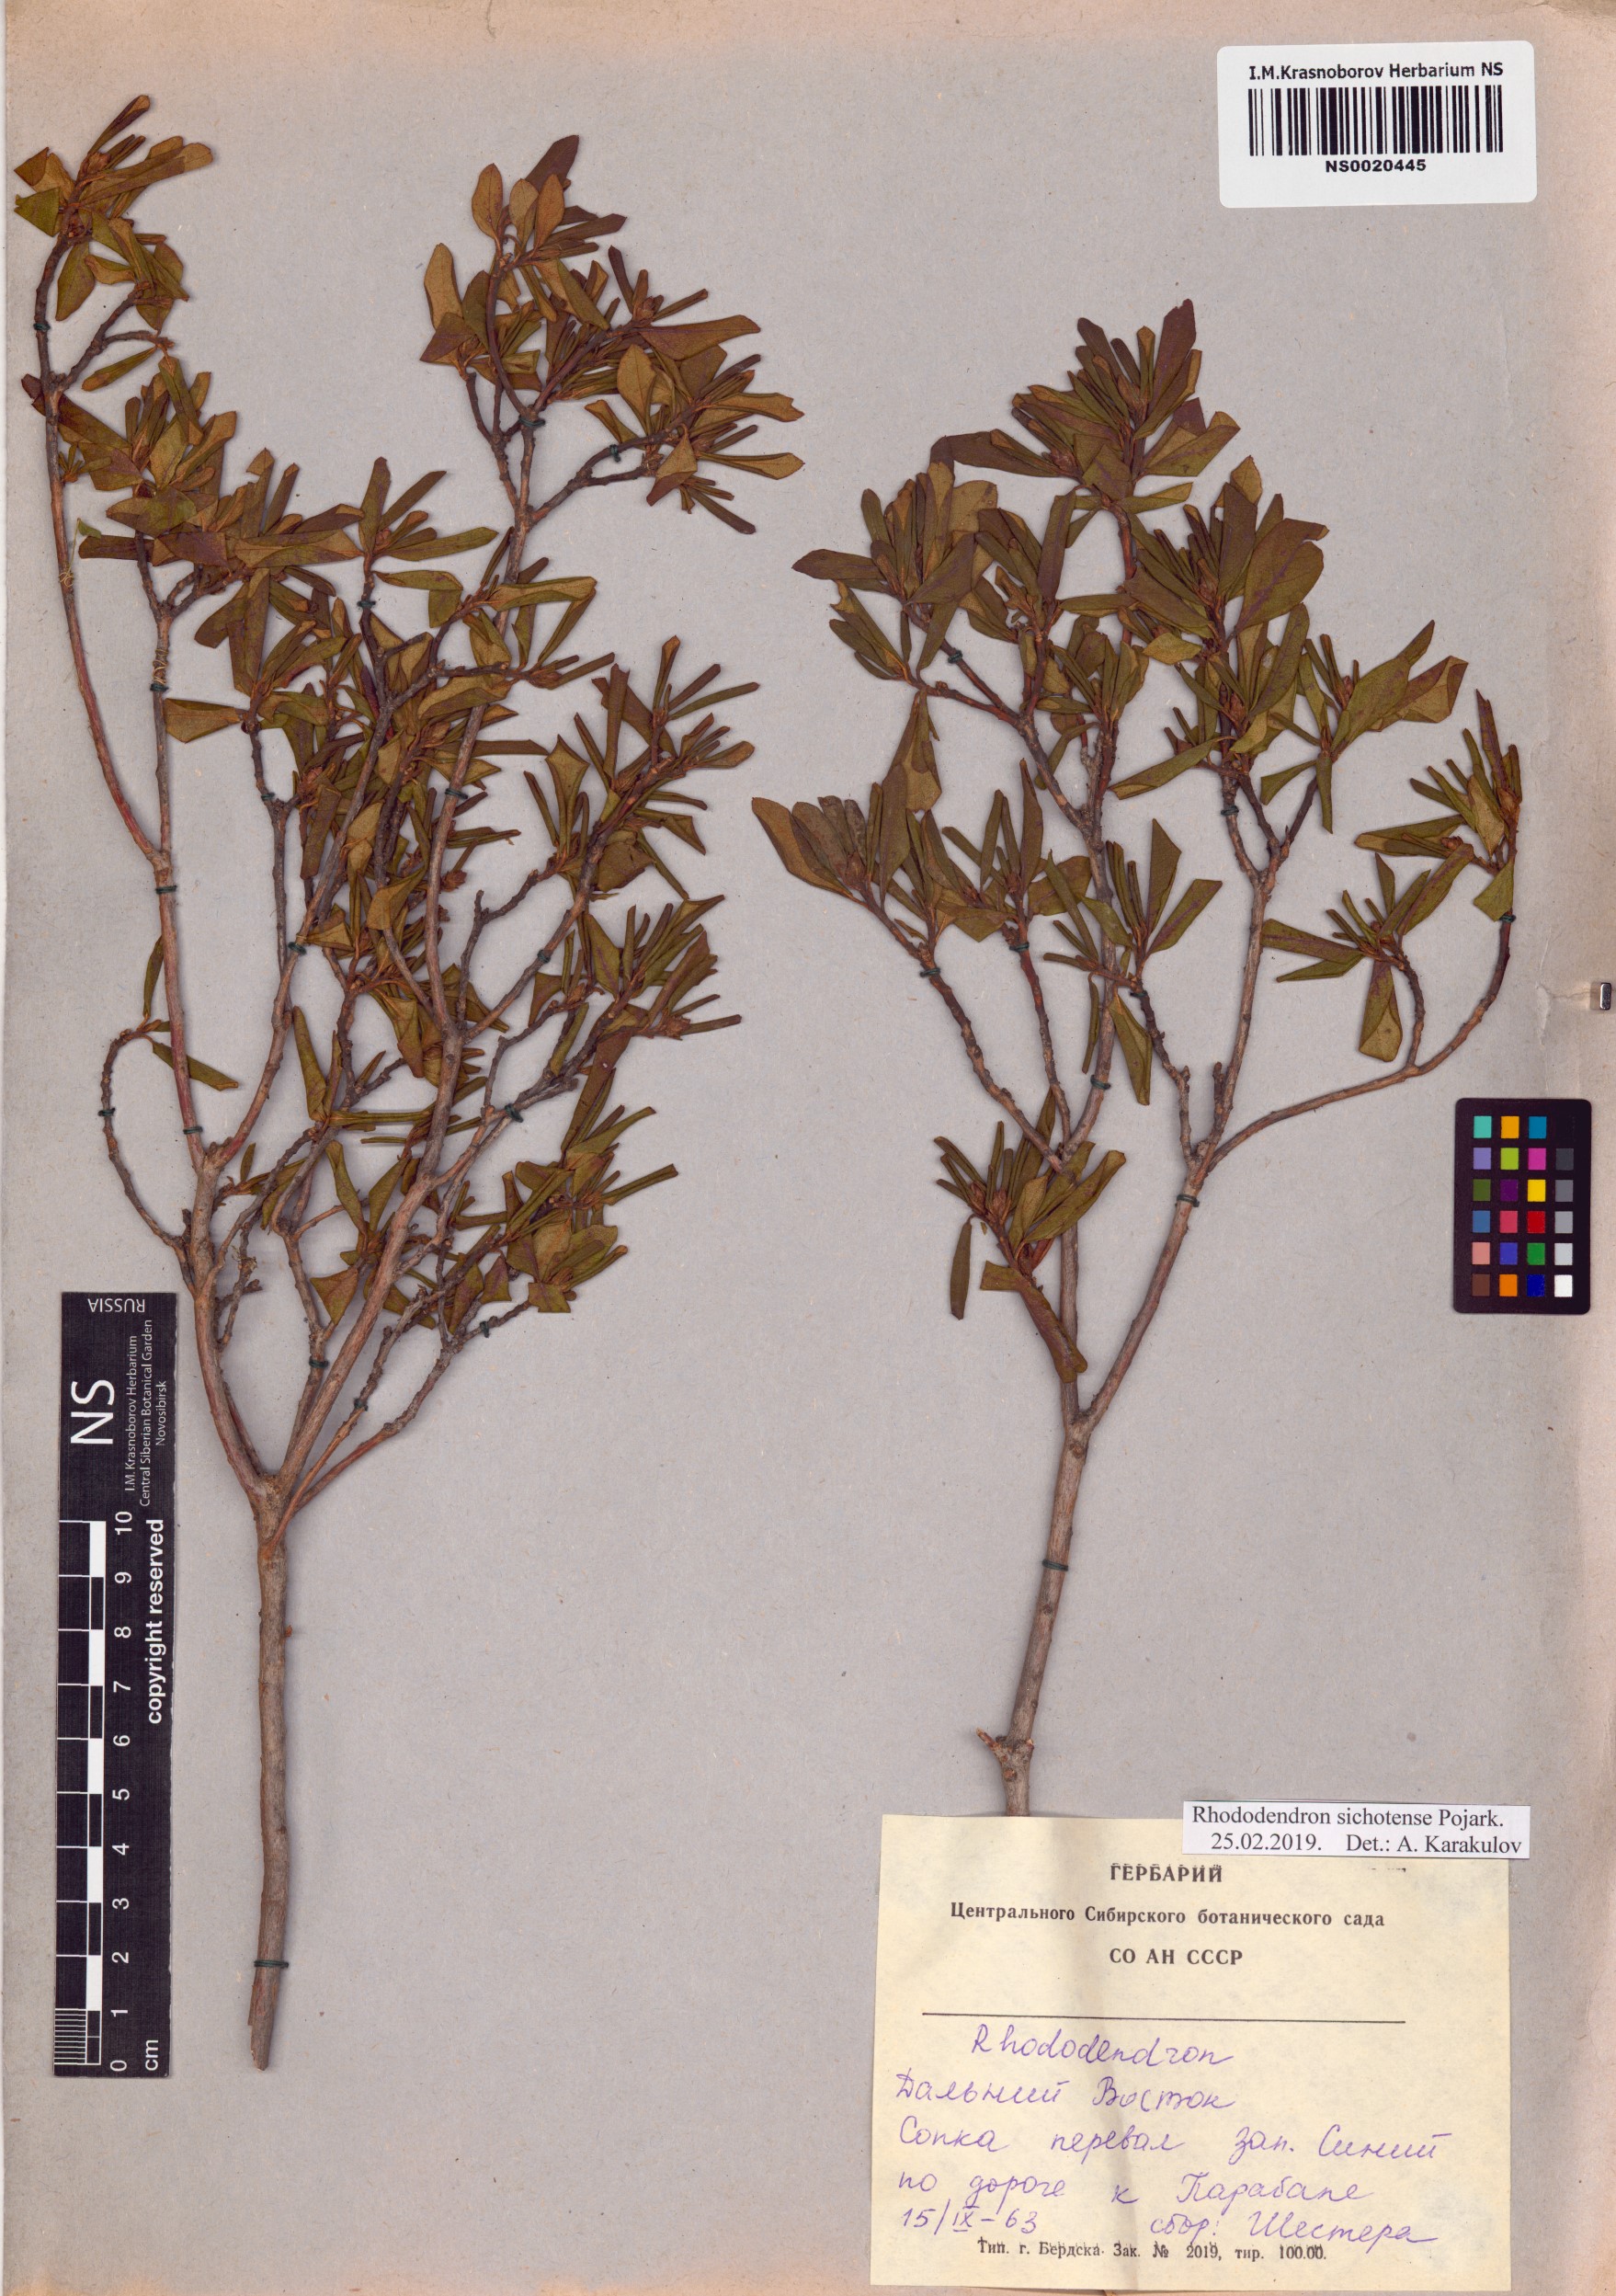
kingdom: Plantae
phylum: Tracheophyta
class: Magnoliopsida
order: Ericales
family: Ericaceae
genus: Rhododendron
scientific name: Rhododendron sichotense
